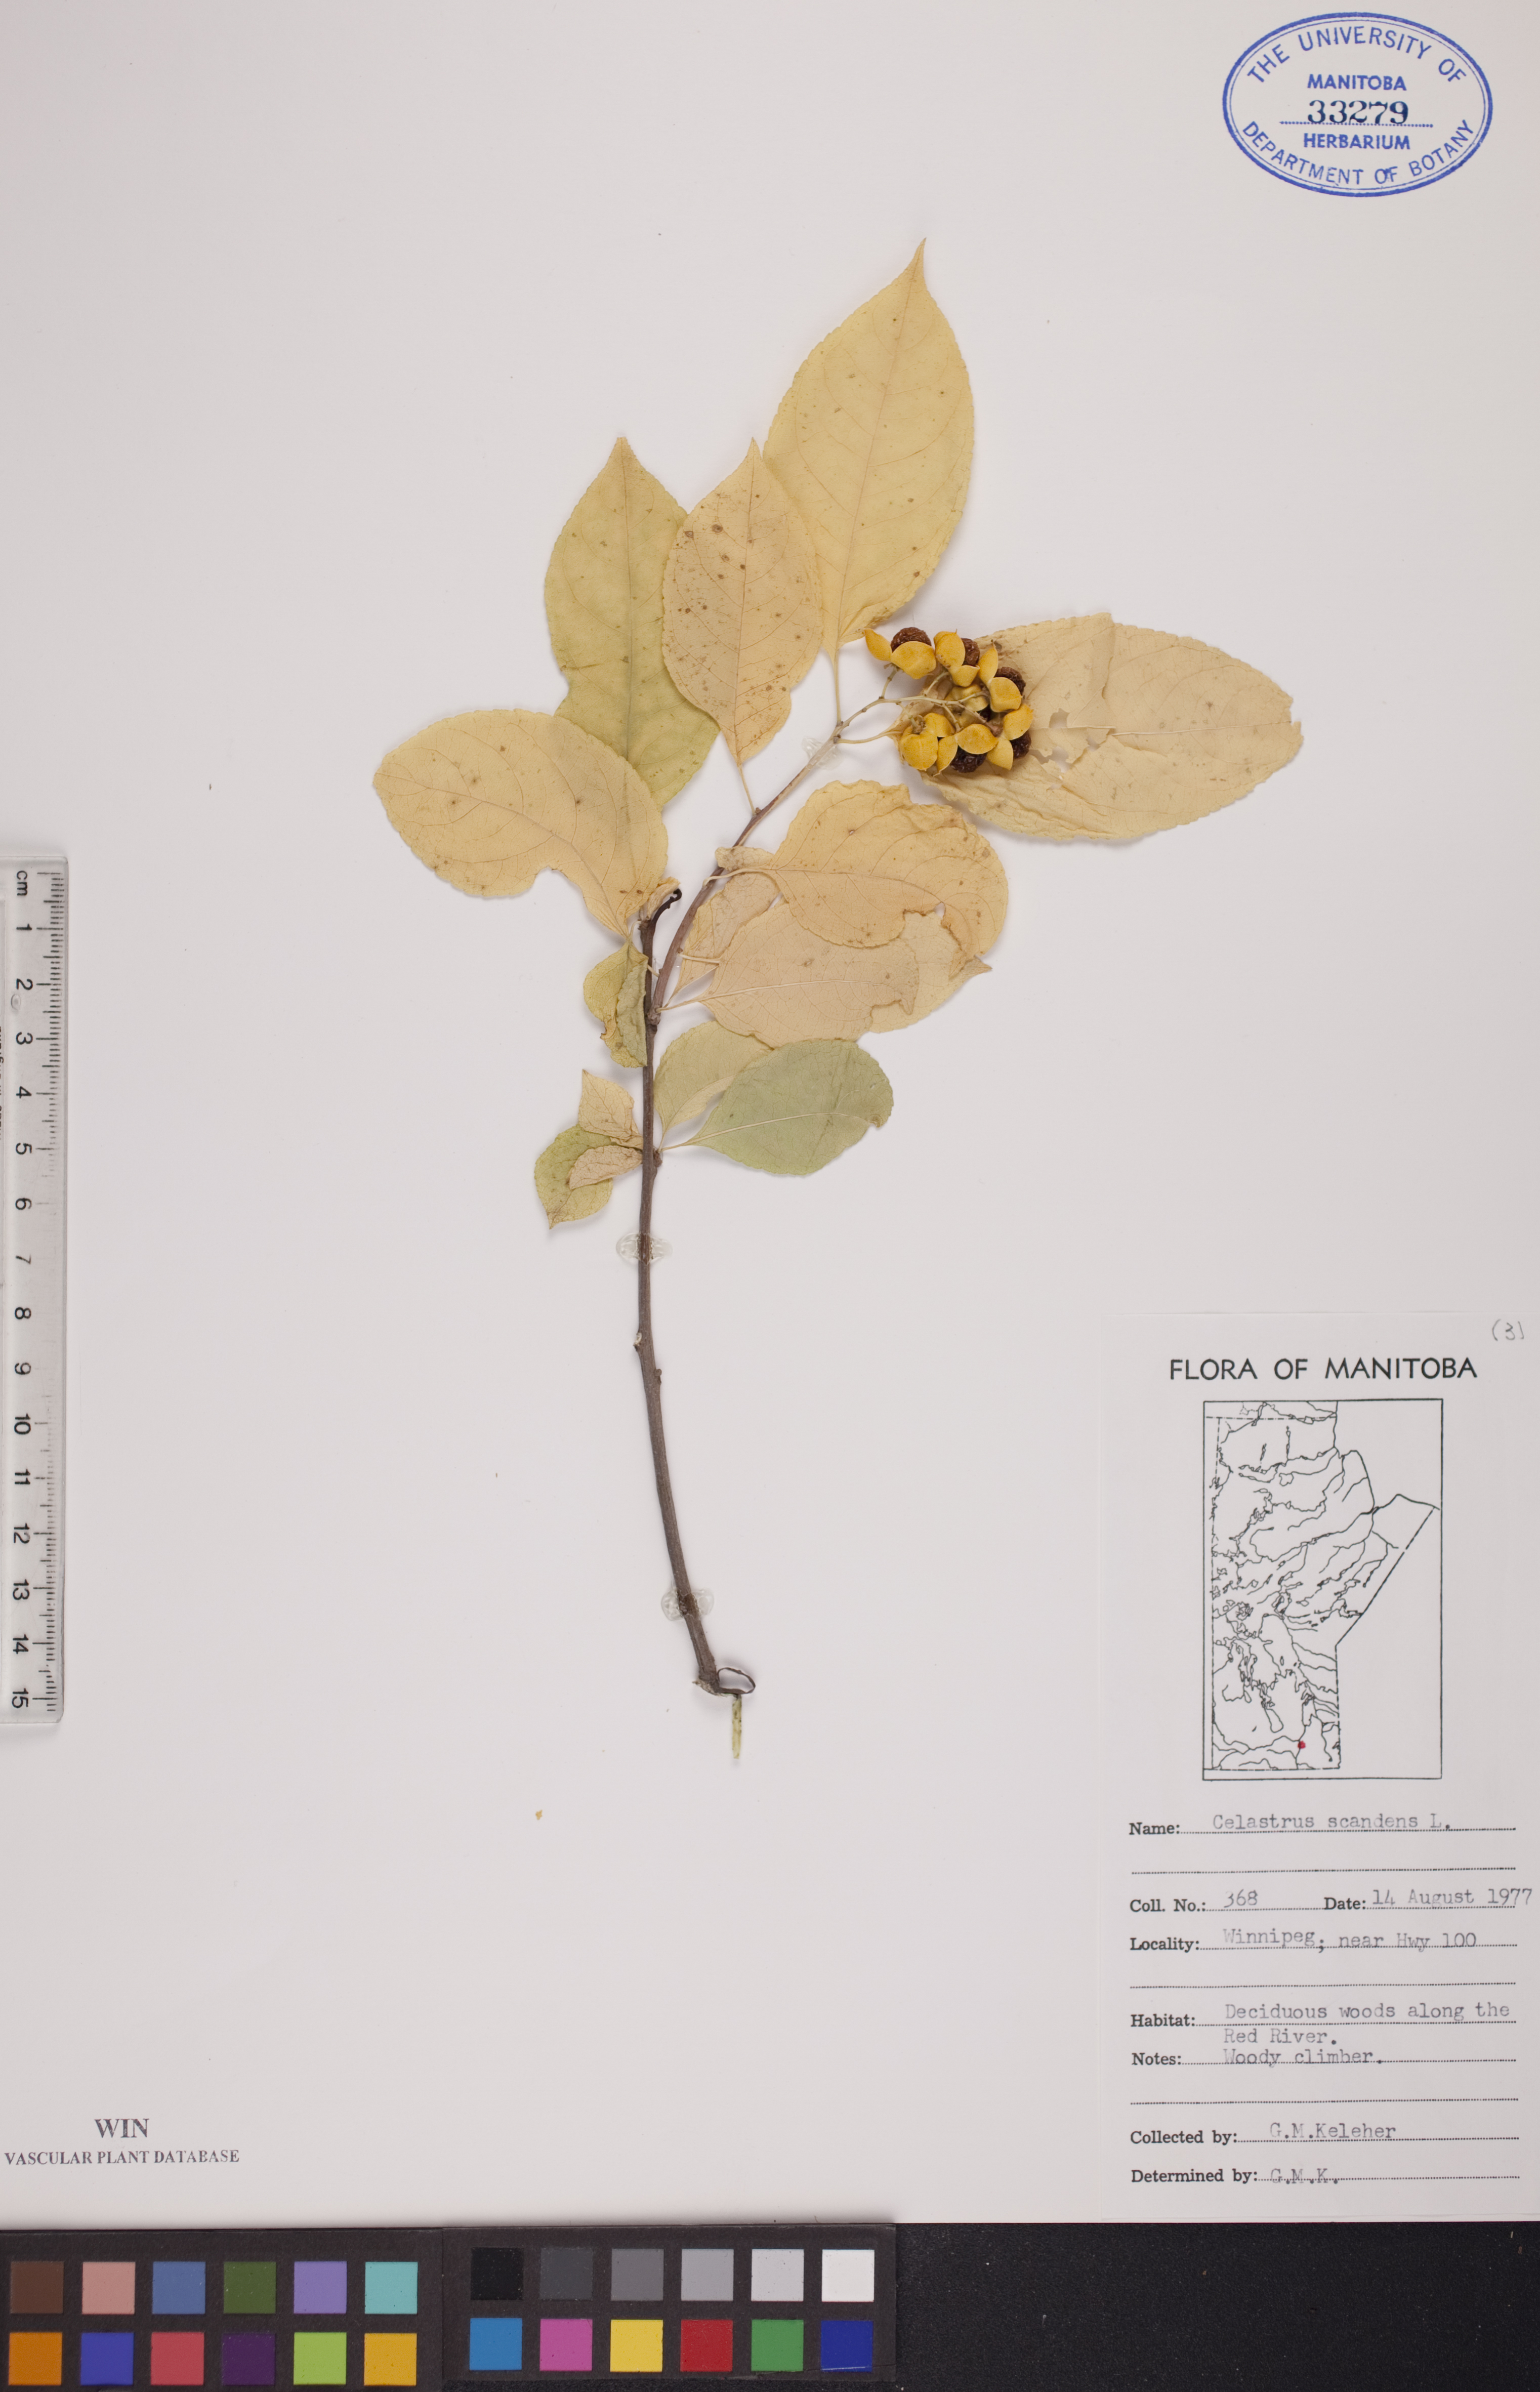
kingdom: Plantae
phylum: Tracheophyta
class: Magnoliopsida
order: Celastrales
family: Celastraceae
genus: Celastrus
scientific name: Celastrus scandens
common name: American bittersweet
